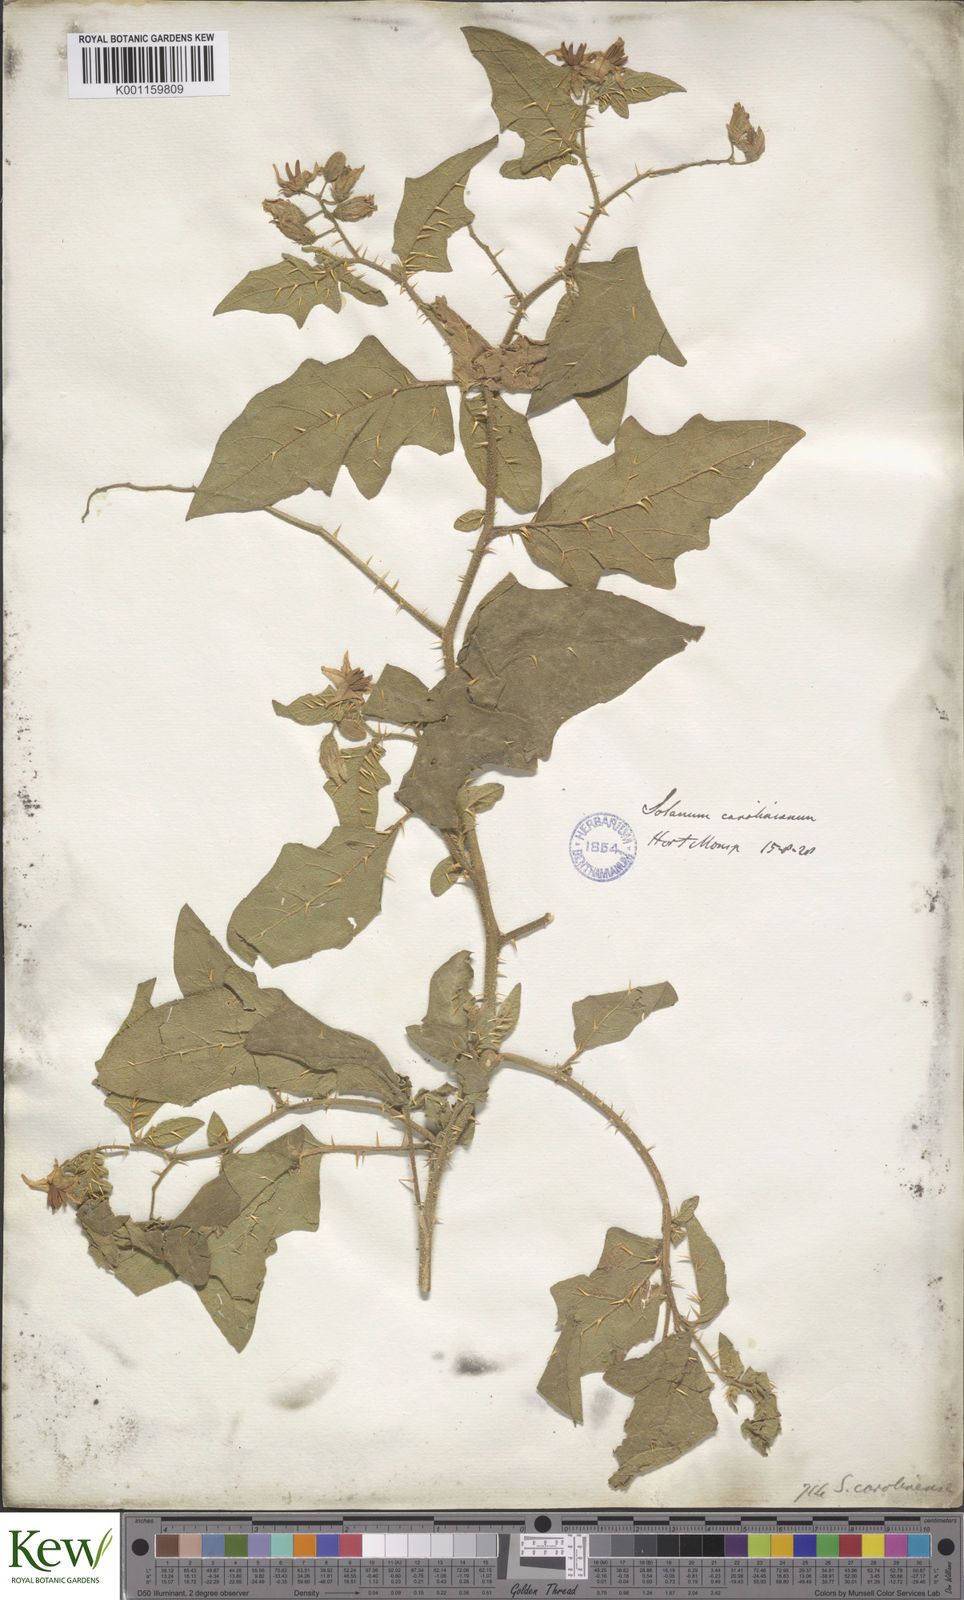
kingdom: Plantae
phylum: Tracheophyta
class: Magnoliopsida
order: Solanales
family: Solanaceae
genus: Solanum
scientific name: Solanum carolinense
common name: Horse-nettle
